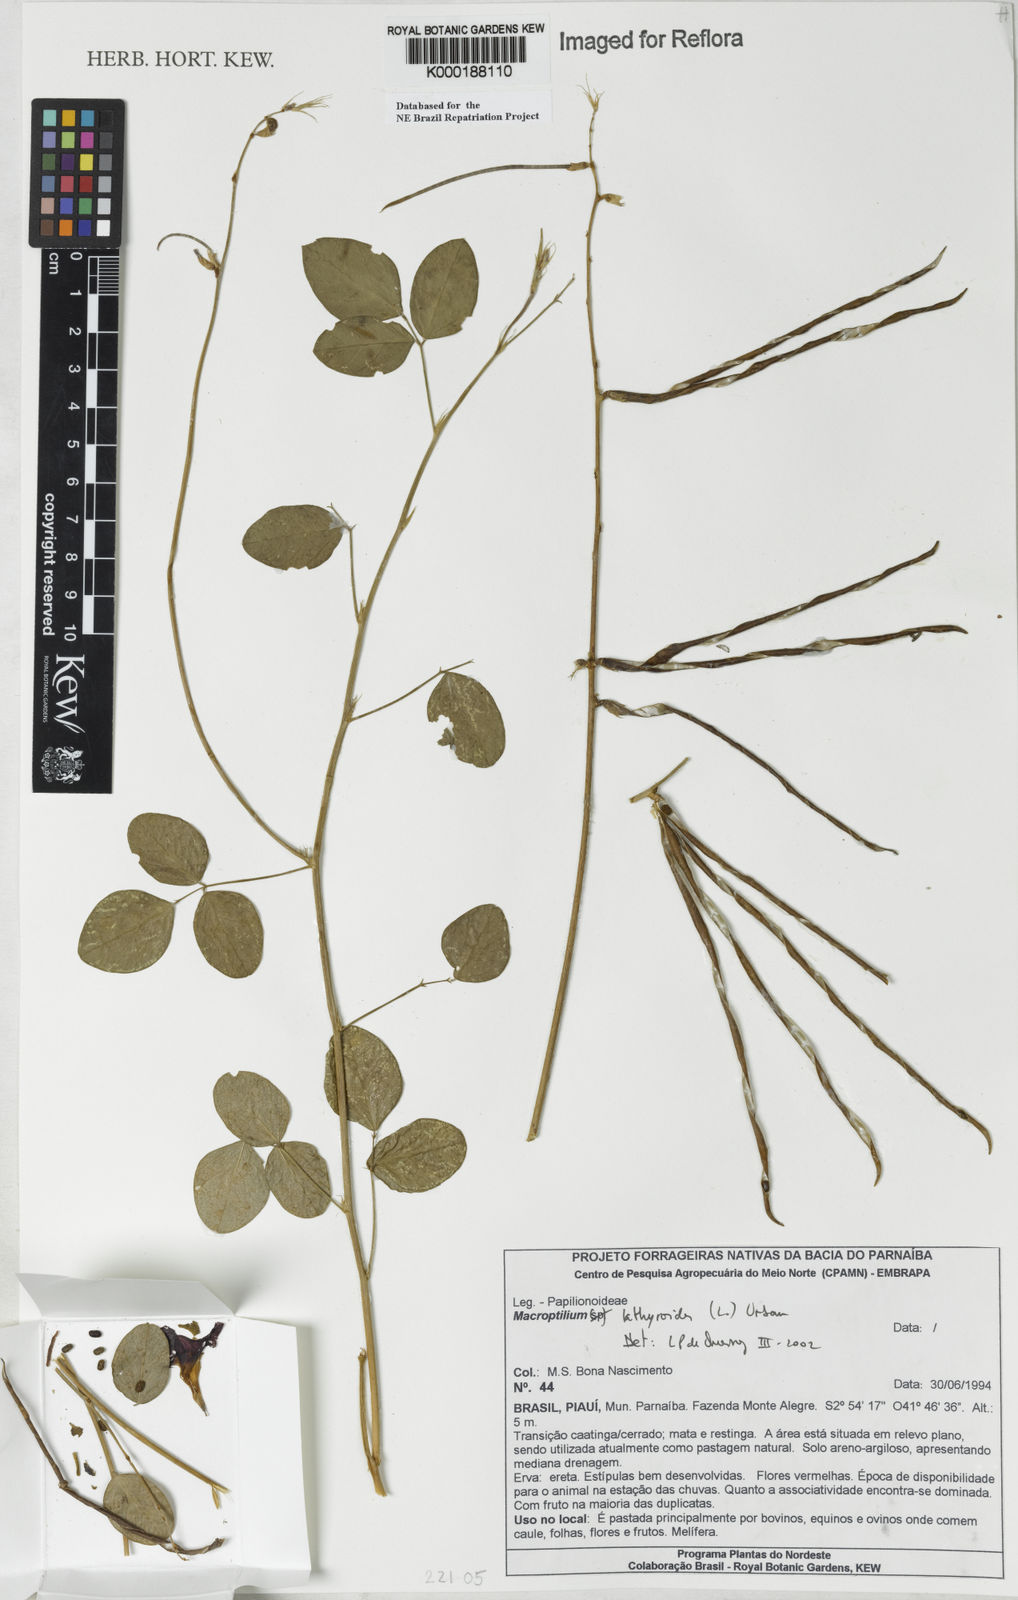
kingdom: Plantae
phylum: Tracheophyta
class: Magnoliopsida
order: Fabales
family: Fabaceae
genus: Macroptilium
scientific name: Macroptilium lathyroides
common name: Wild bushbean
